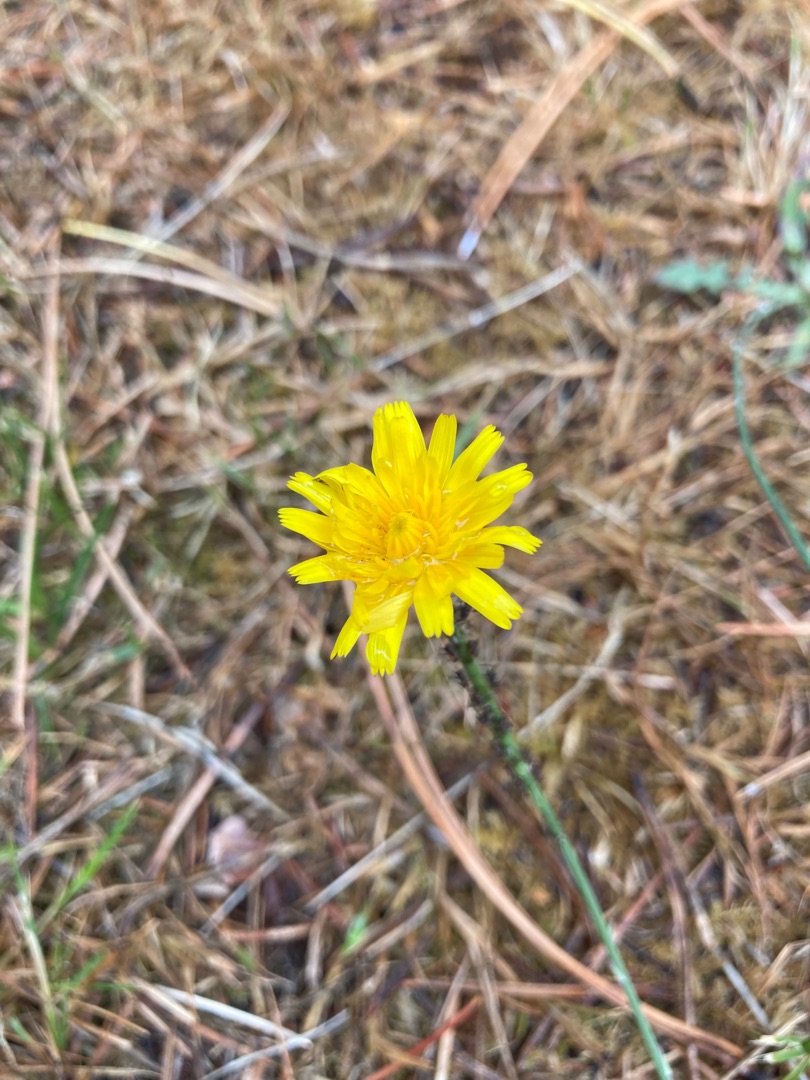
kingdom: Plantae
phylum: Tracheophyta
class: Magnoliopsida
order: Asterales
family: Asteraceae
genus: Hypochaeris
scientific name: Hypochaeris radicata
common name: Almindelig kongepen
